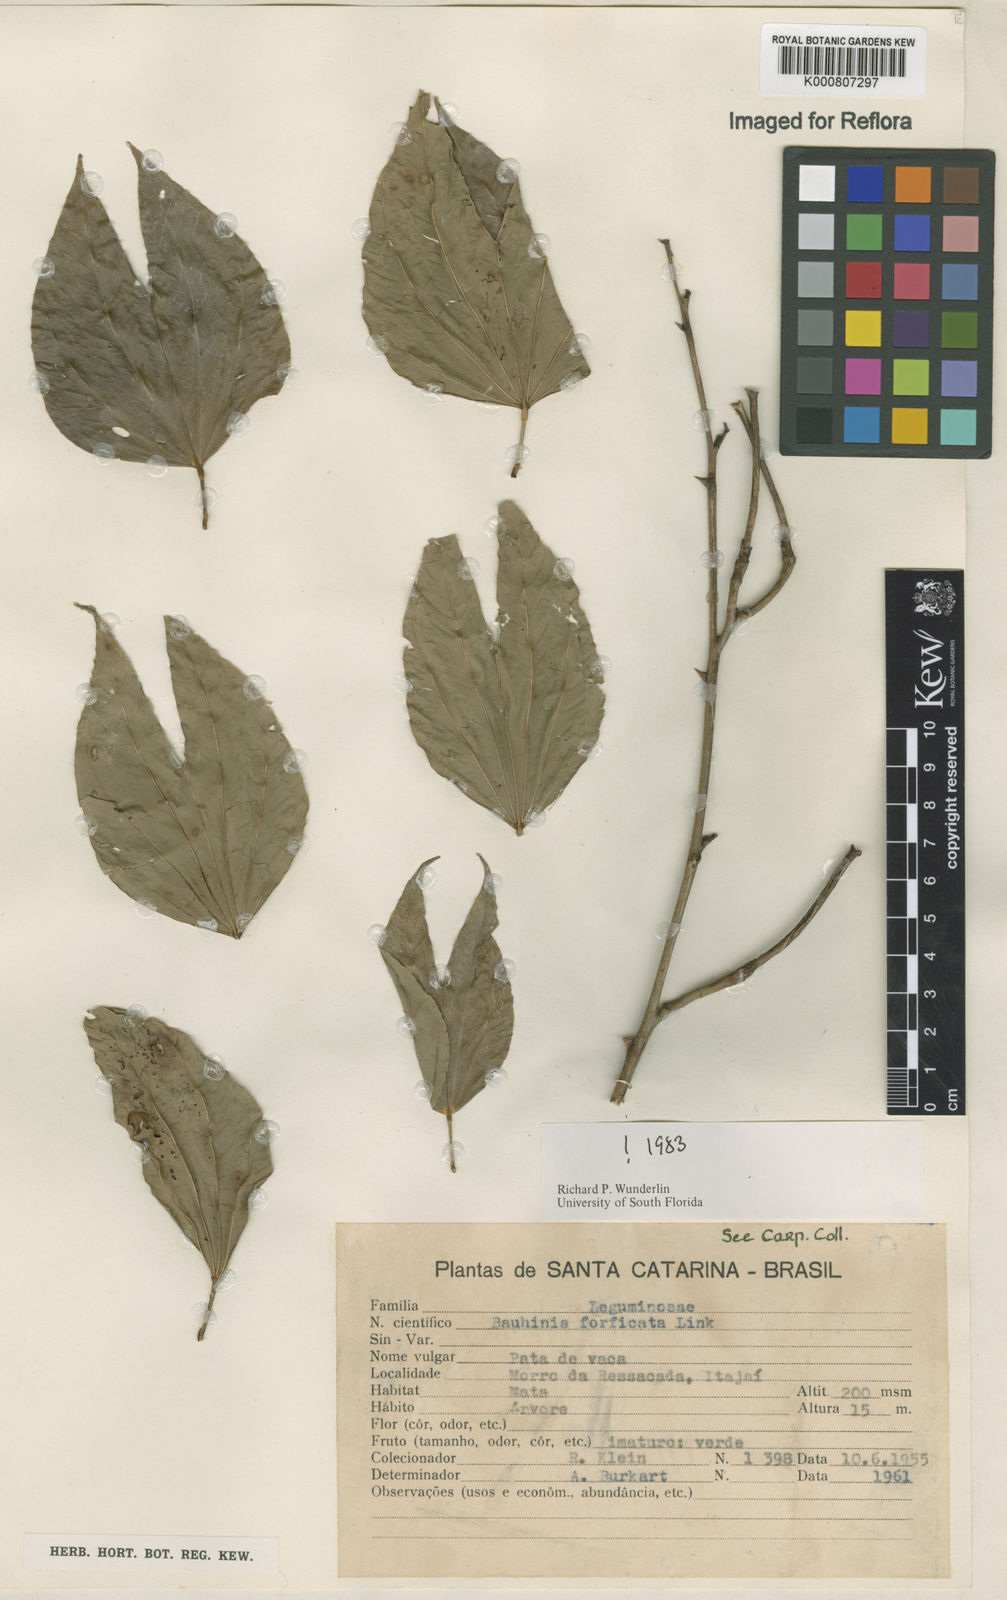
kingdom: Plantae
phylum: Tracheophyta
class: Magnoliopsida
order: Fabales
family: Fabaceae
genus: Bauhinia
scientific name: Bauhinia forficata
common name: Orchid tree
